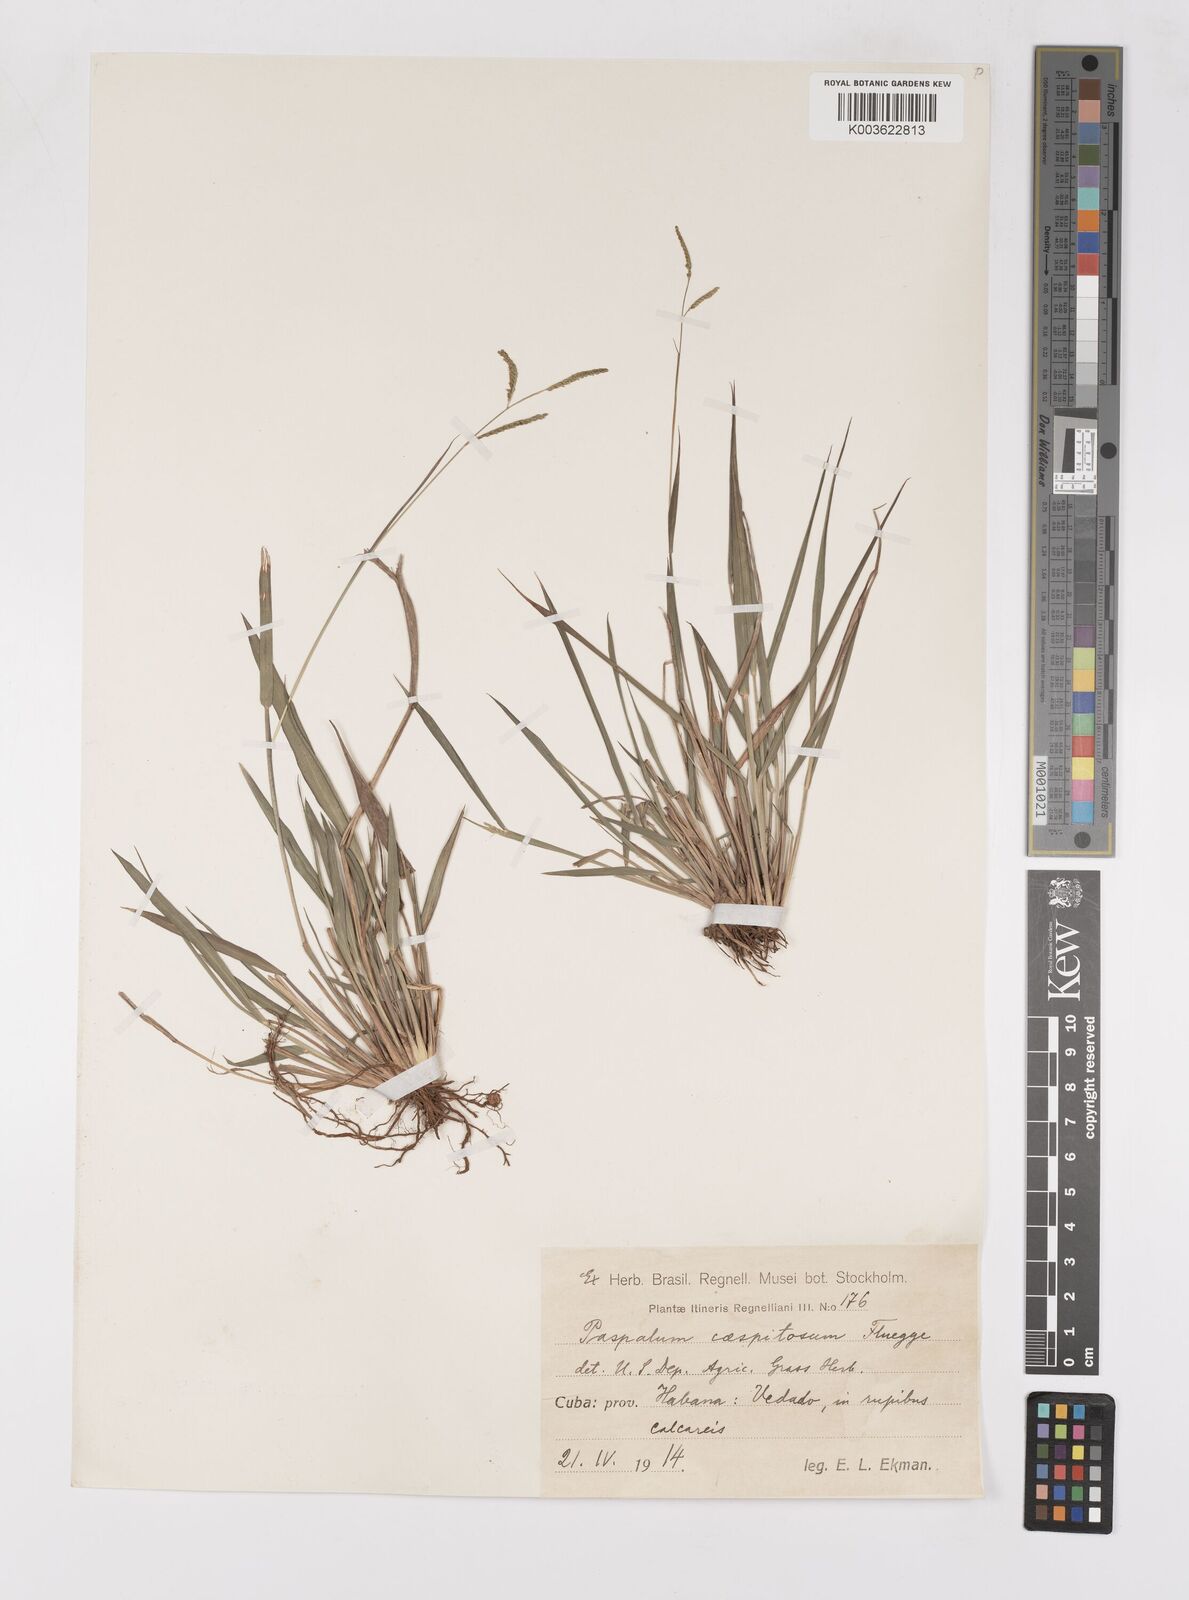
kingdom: Plantae
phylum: Tracheophyta
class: Liliopsida
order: Poales
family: Poaceae
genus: Paspalum
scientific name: Paspalum caespitosum
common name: Blue crowngrass
